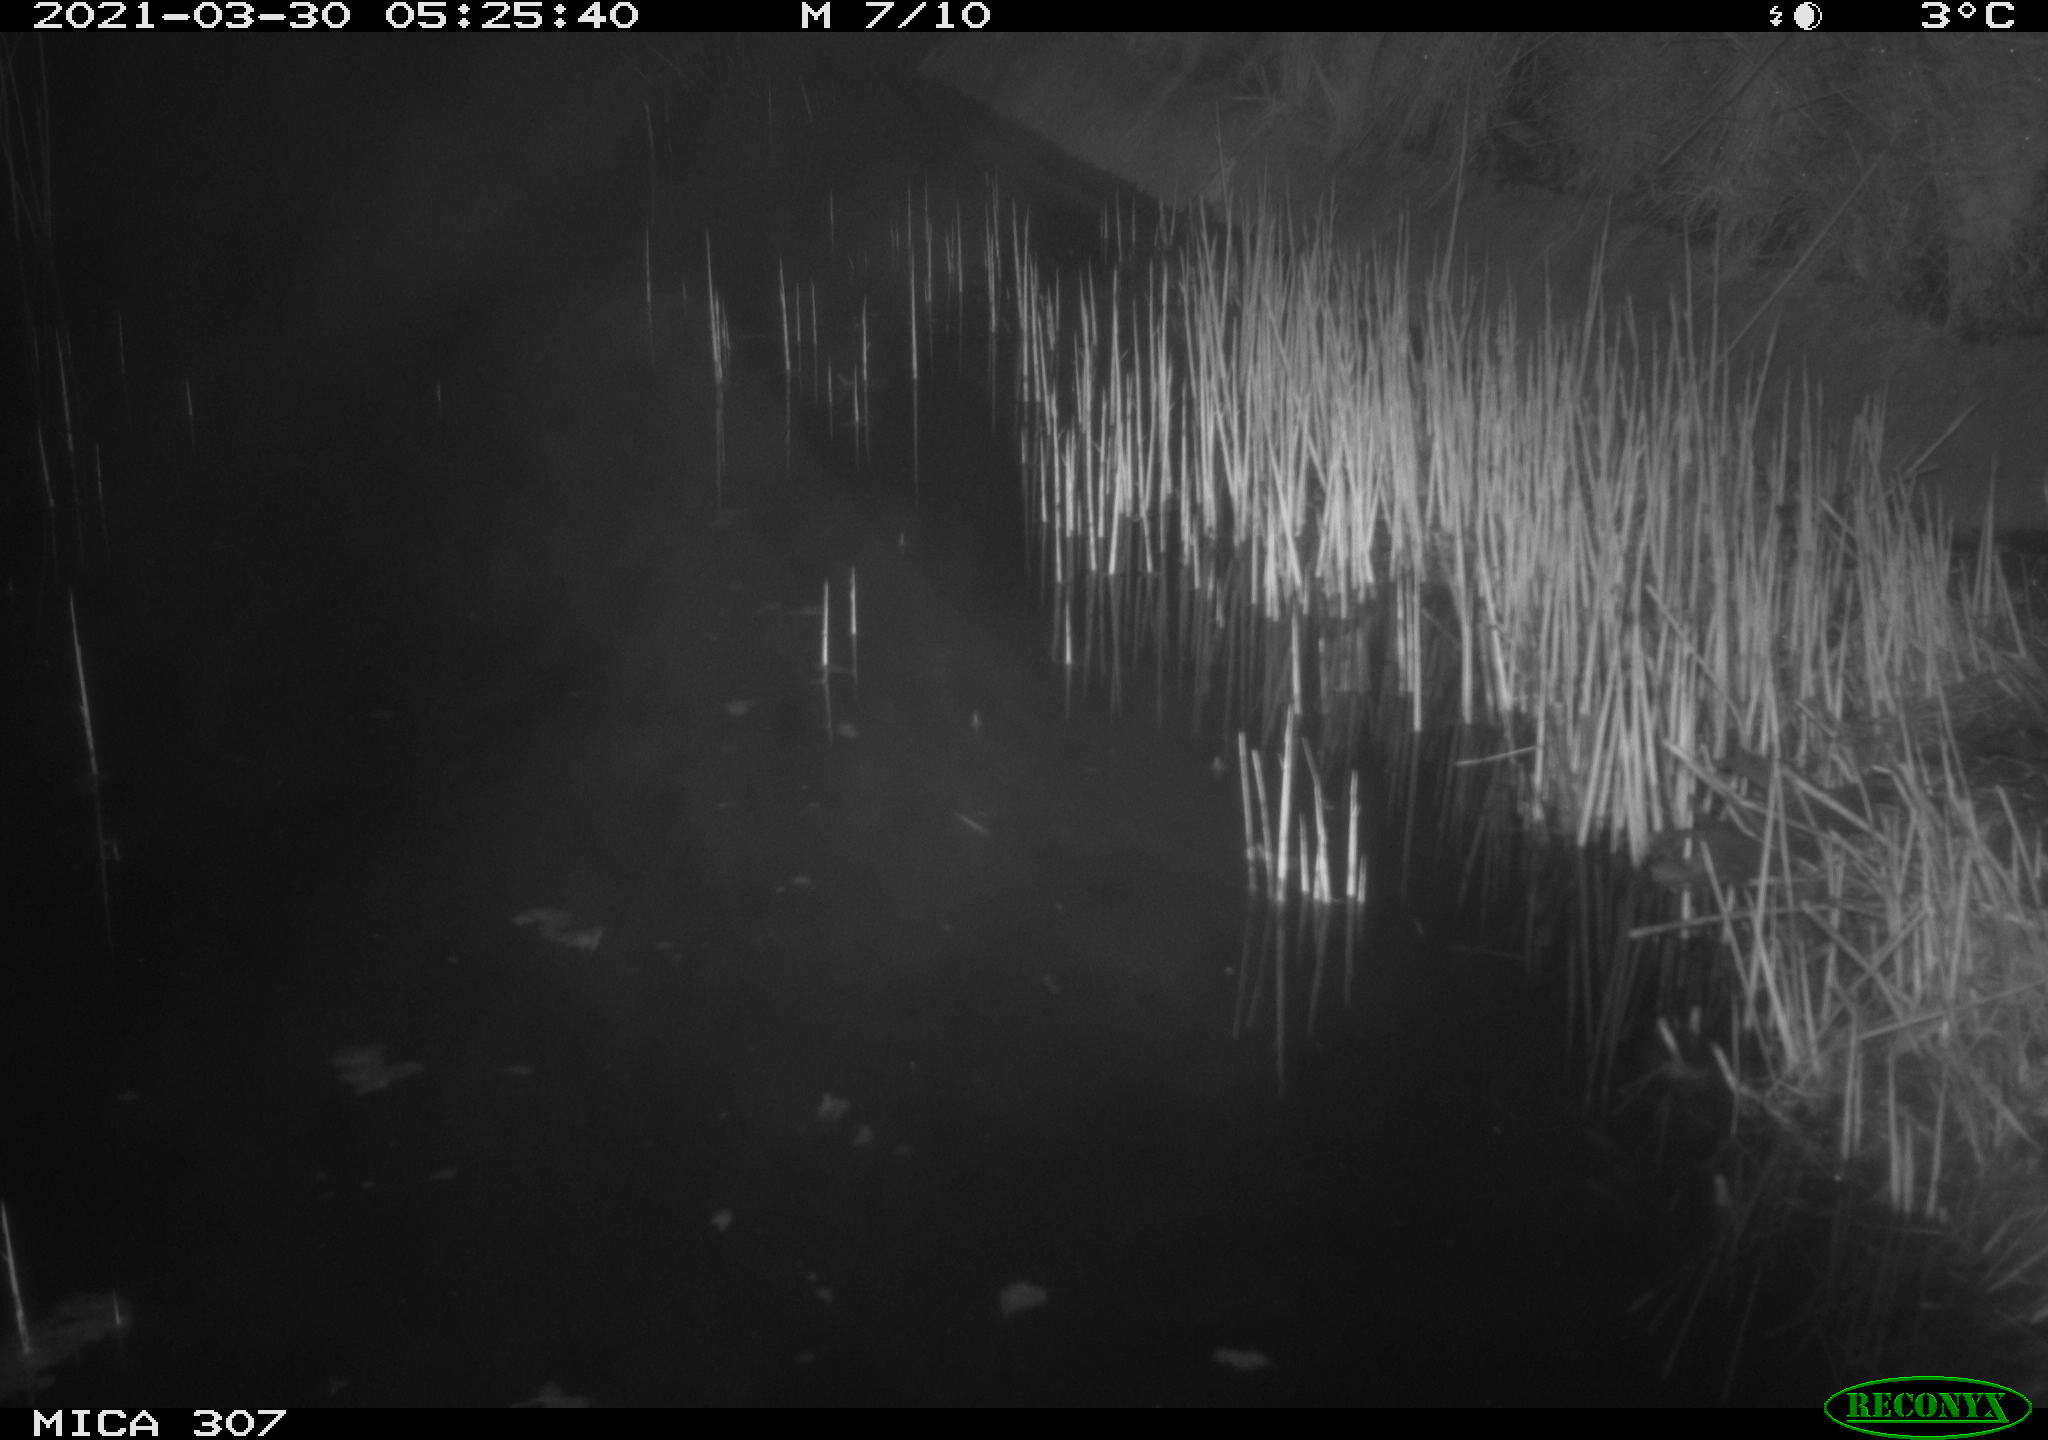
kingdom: Animalia
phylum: Chordata
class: Mammalia
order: Rodentia
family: Muridae
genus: Rattus
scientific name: Rattus norvegicus
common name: Brown rat
